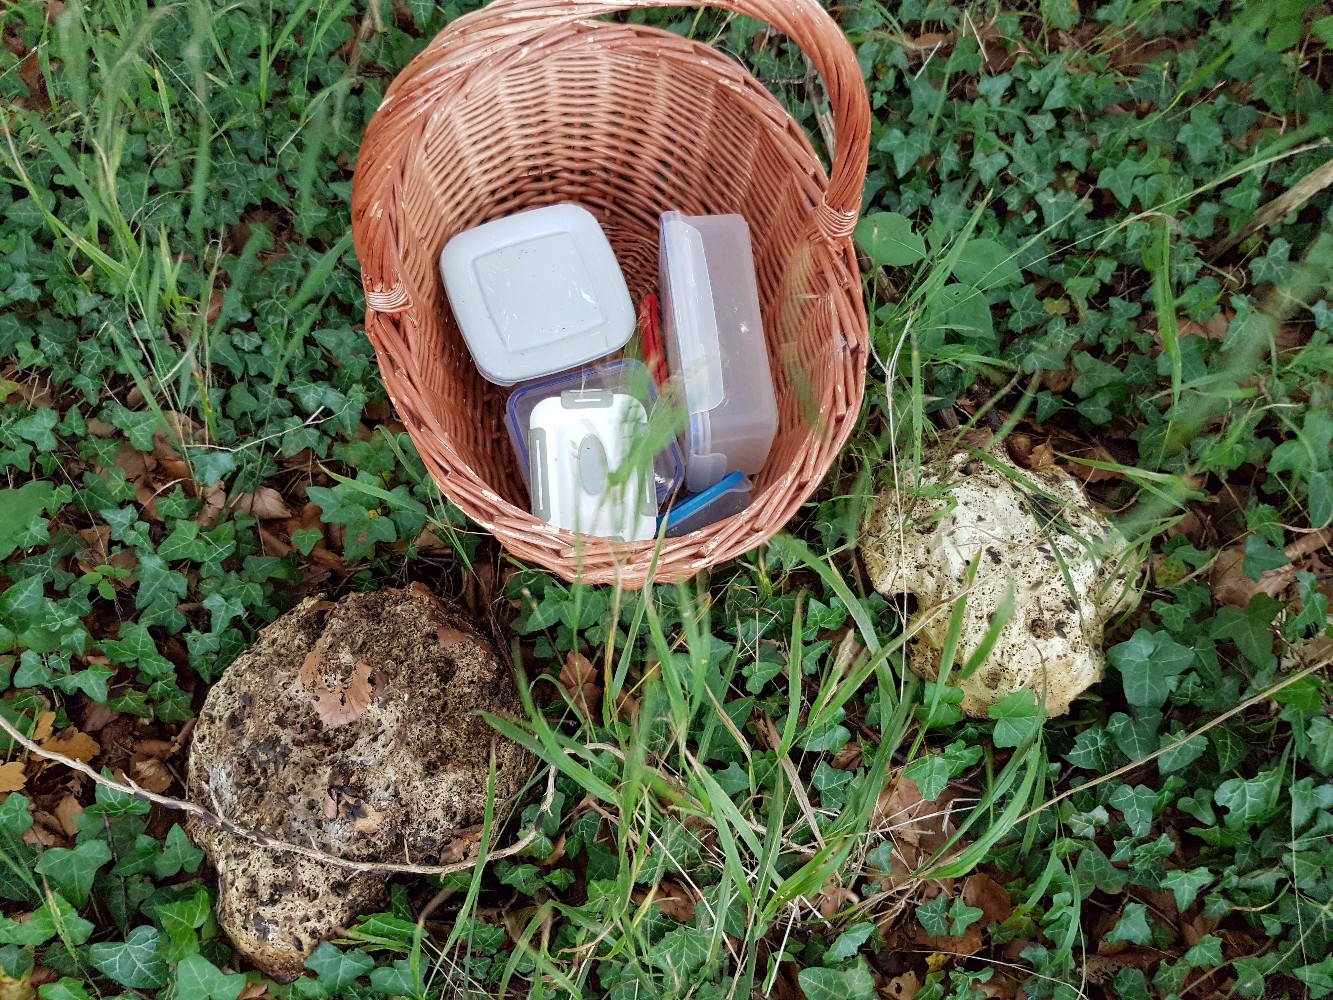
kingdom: Fungi
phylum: Basidiomycota
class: Agaricomycetes
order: Boletales
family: Boletaceae
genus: Rubroboletus
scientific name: Rubroboletus satanas
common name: Satans rørhat
